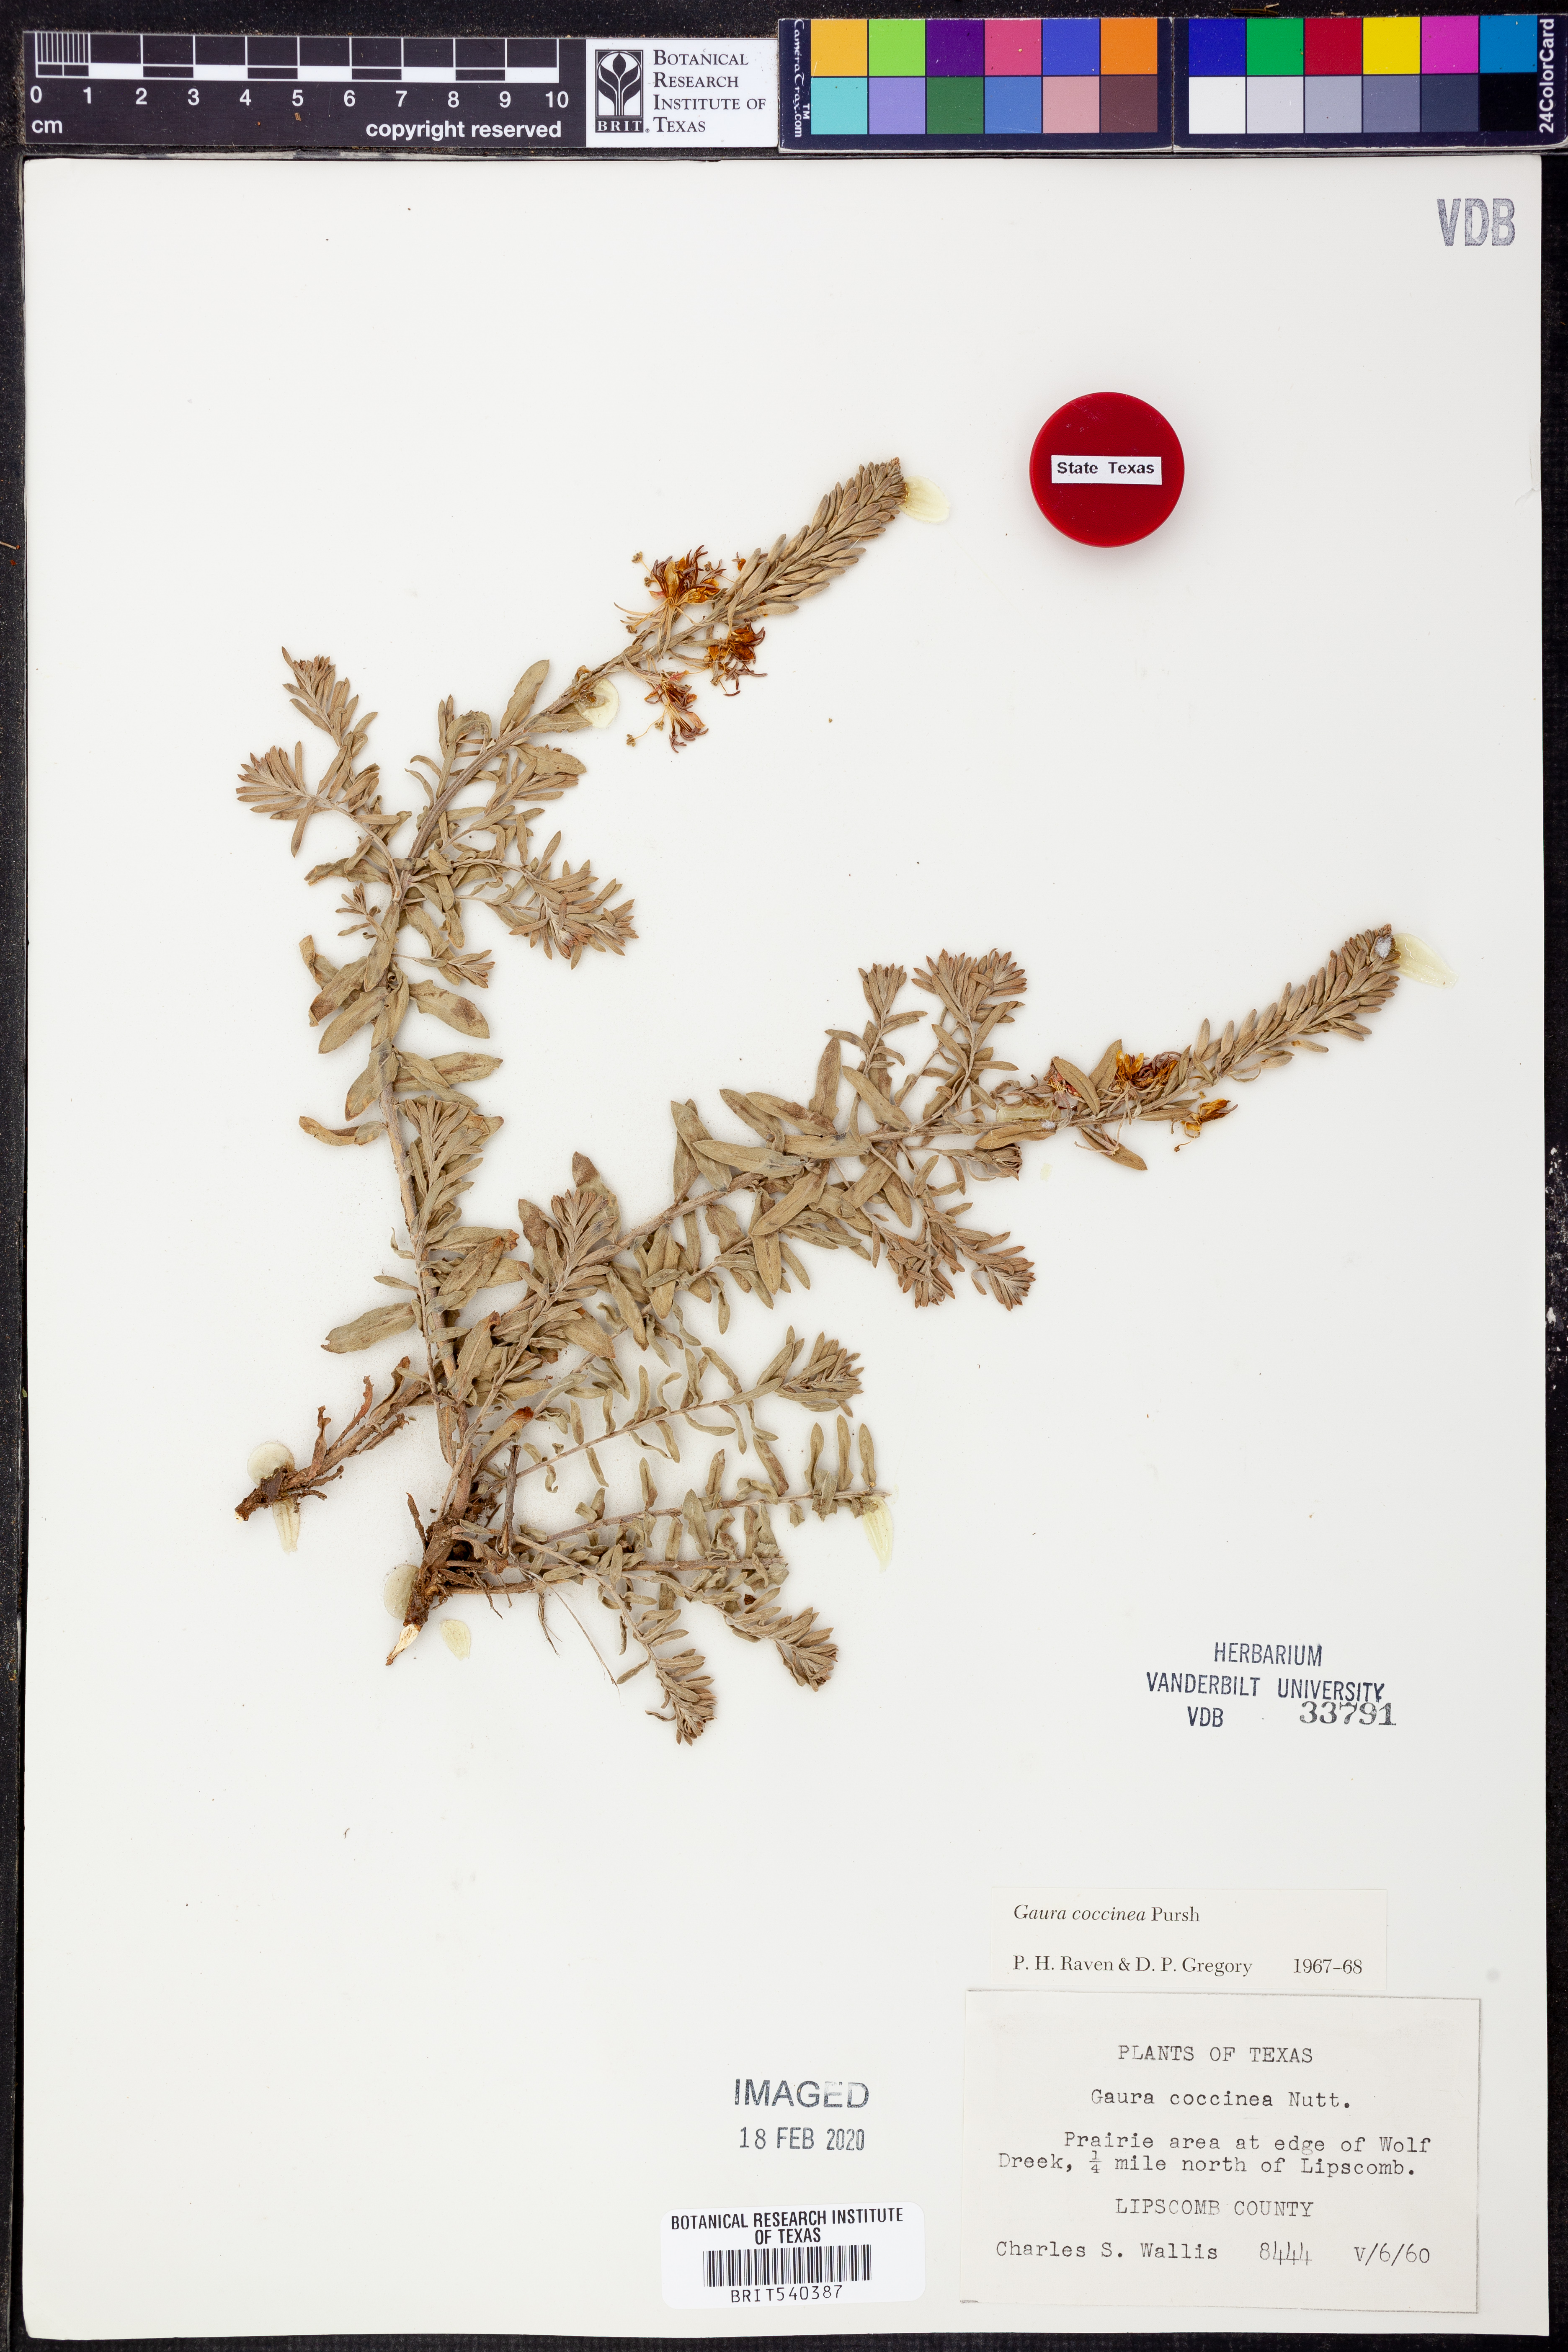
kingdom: Plantae
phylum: Tracheophyta
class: Magnoliopsida
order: Myrtales
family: Onagraceae
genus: Oenothera
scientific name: Oenothera suffrutescens
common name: Scarlet beeblossom
